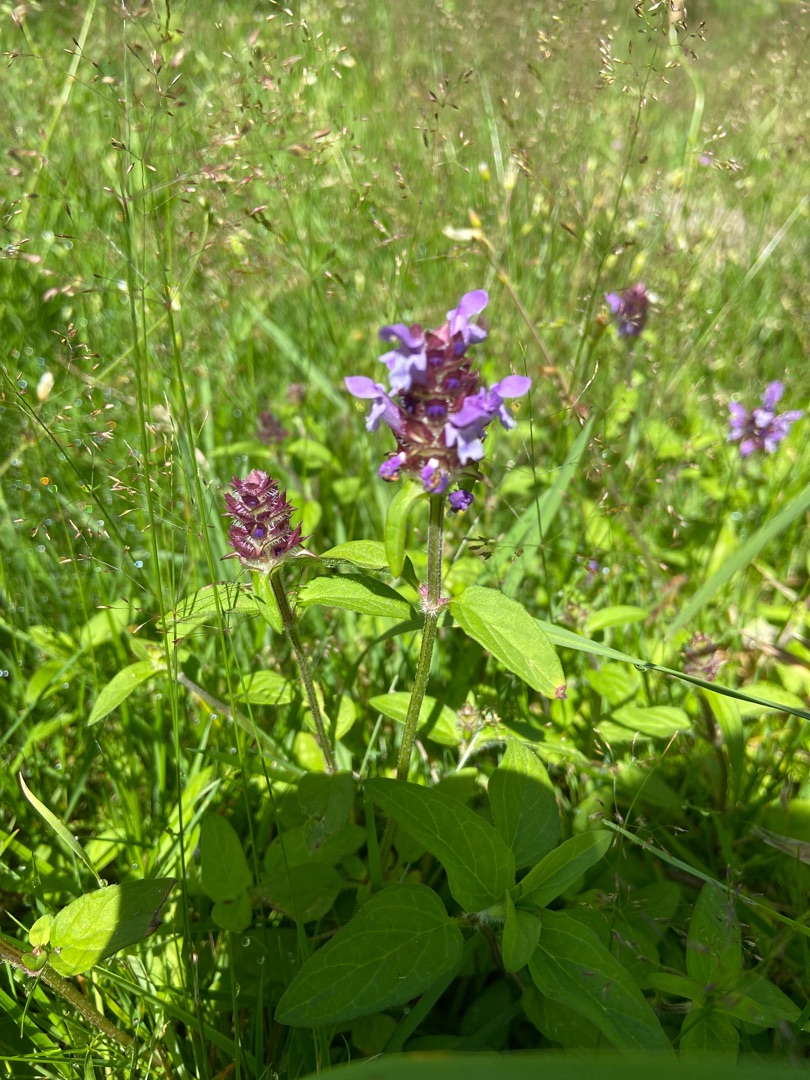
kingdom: Plantae
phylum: Tracheophyta
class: Magnoliopsida
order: Lamiales
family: Lamiaceae
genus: Prunella
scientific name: Prunella vulgaris
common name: Almindelig brunelle
